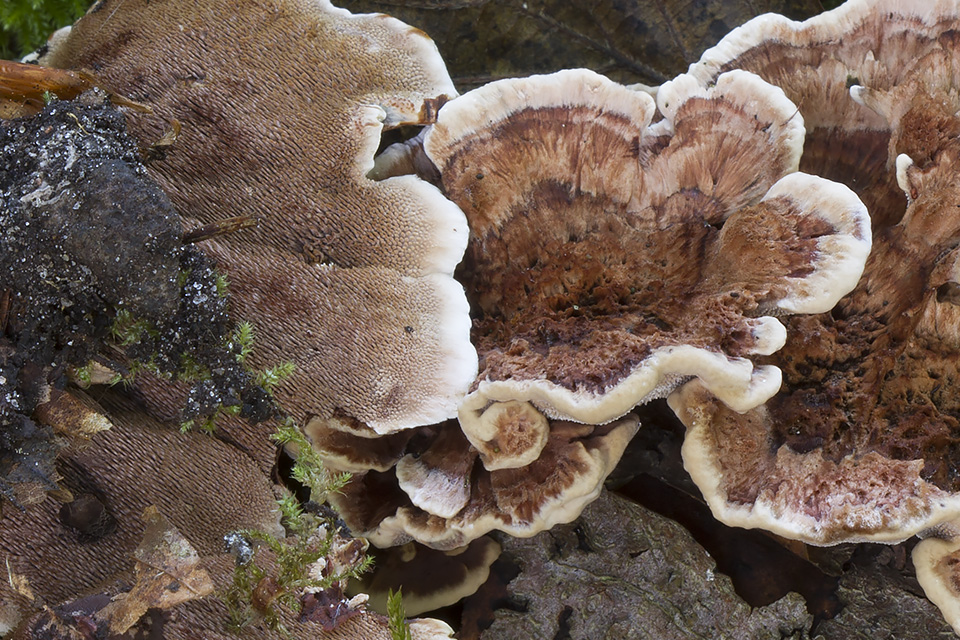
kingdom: Fungi
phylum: Basidiomycota
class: Agaricomycetes
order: Thelephorales
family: Bankeraceae
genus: Hydnellum
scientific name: Hydnellum concrescens
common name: bæltet korkpigsvamp
